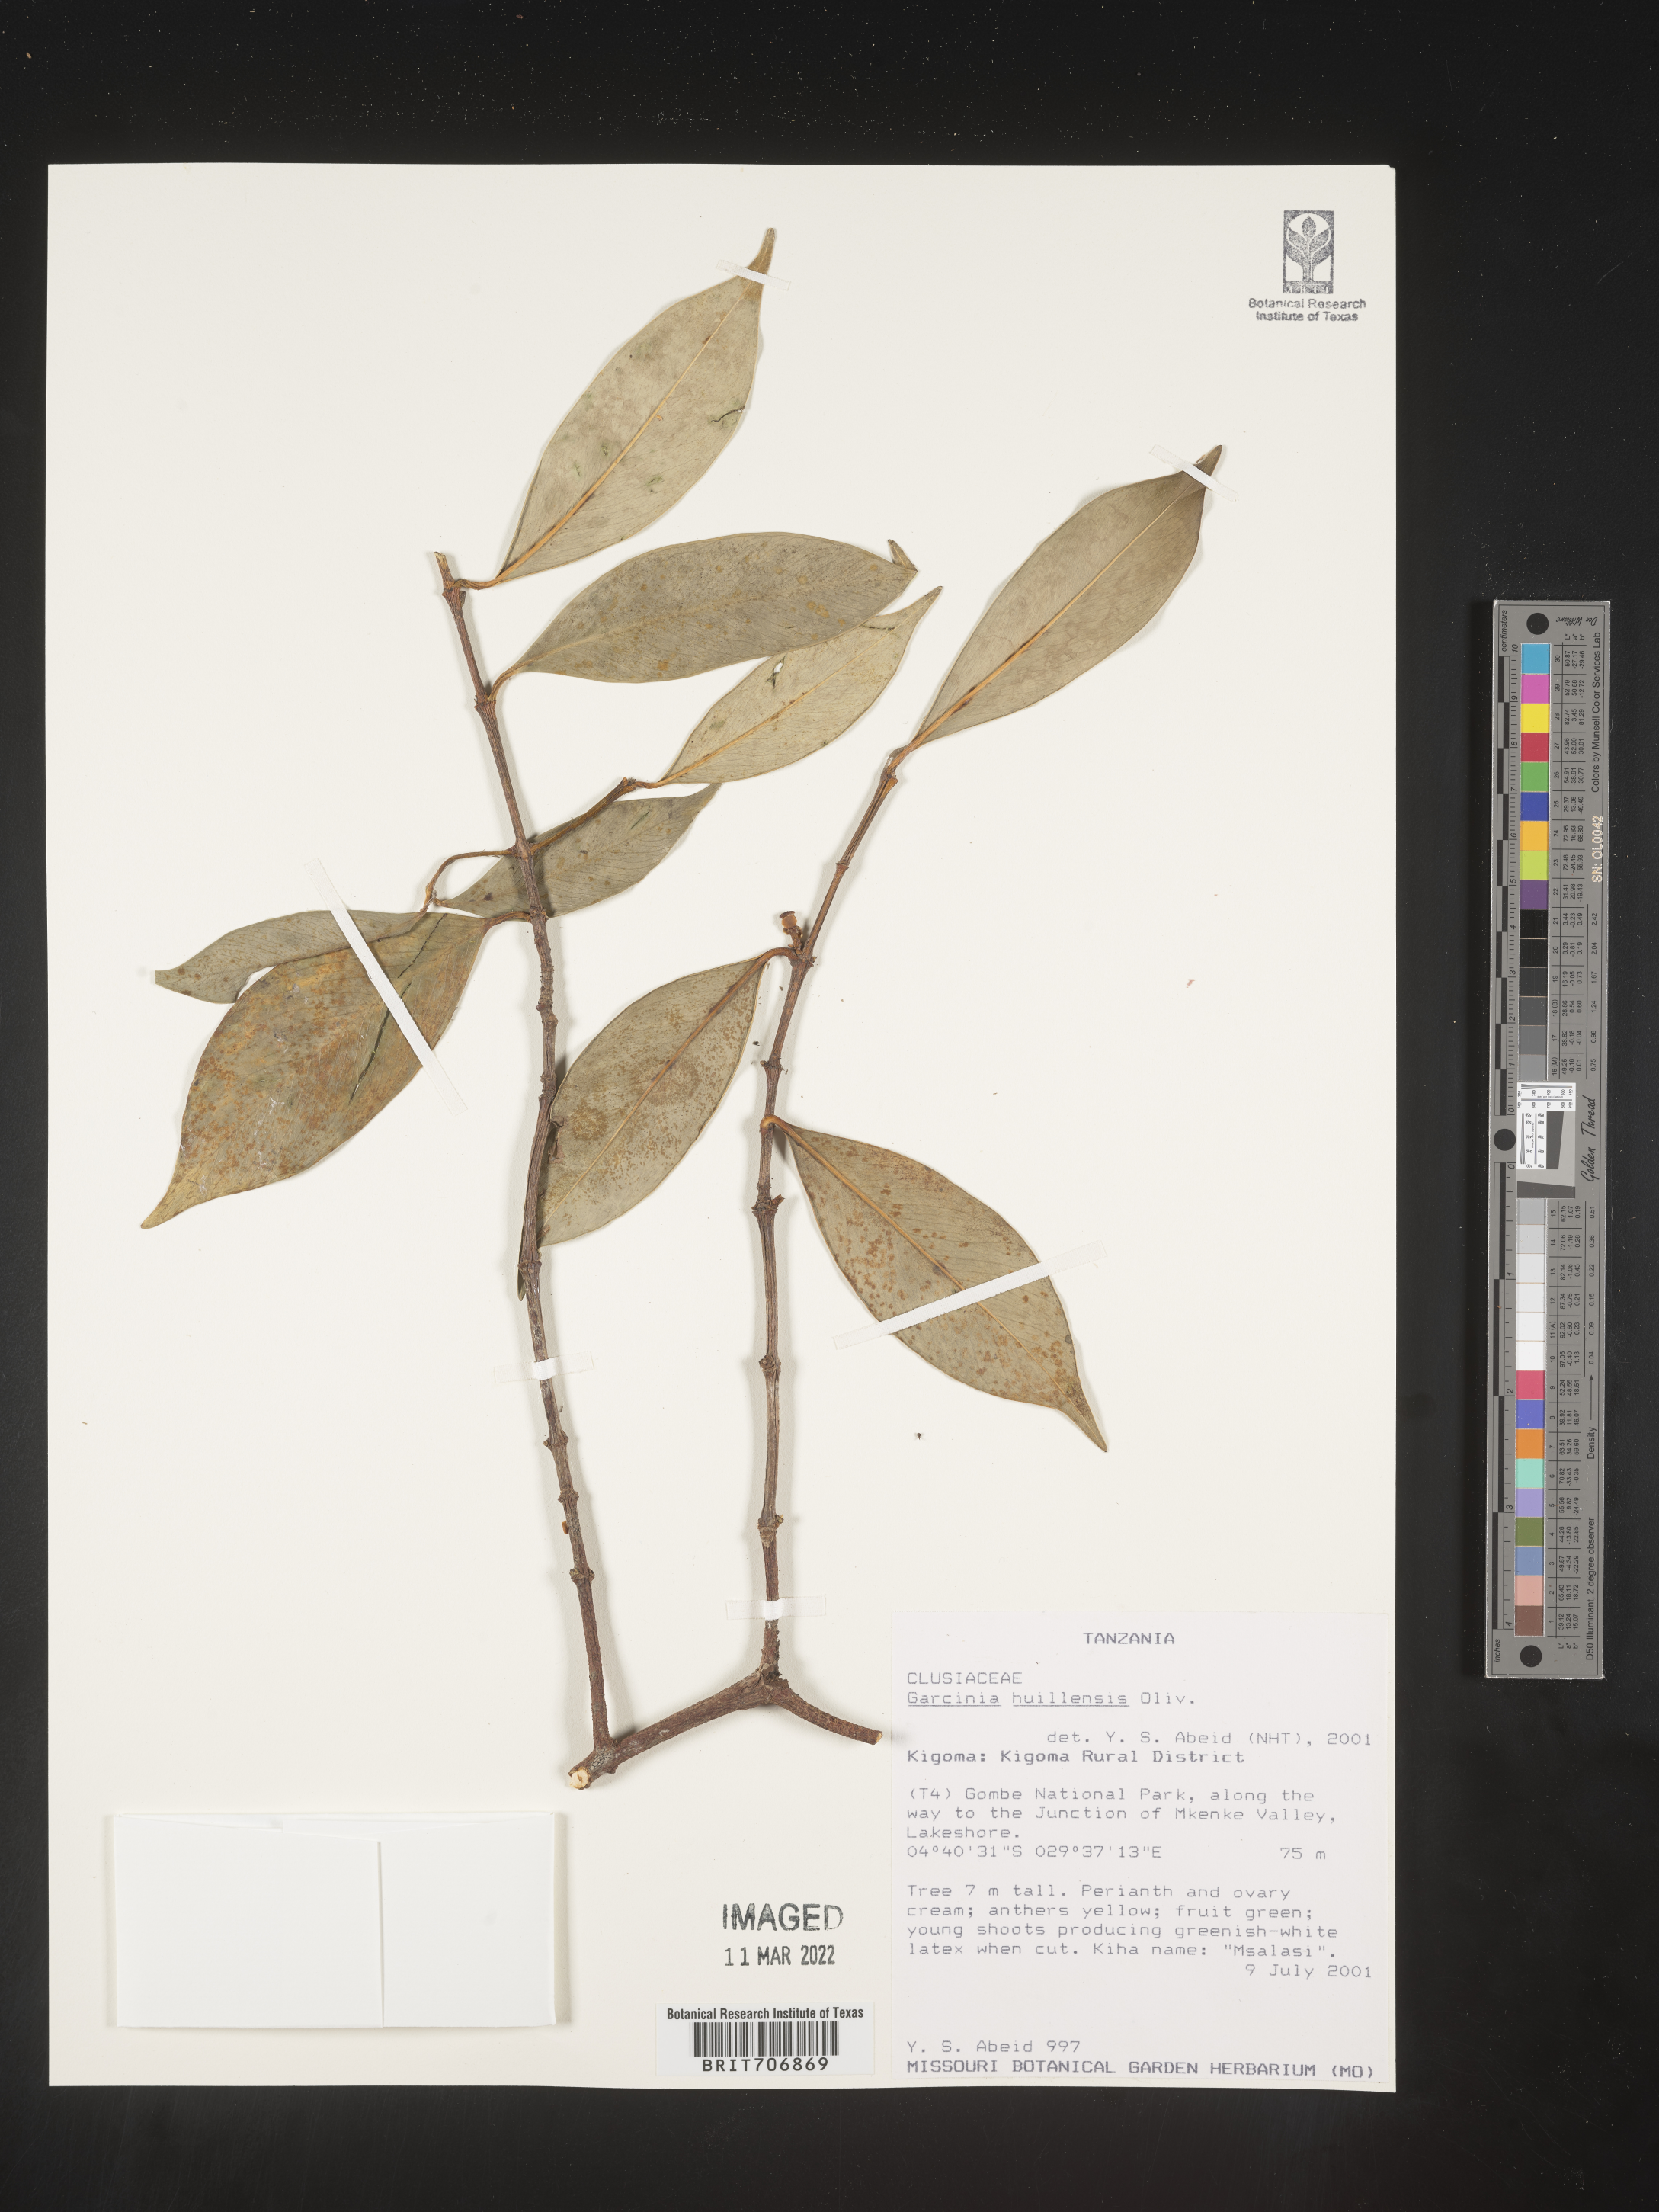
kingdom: Plantae
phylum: Tracheophyta
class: Magnoliopsida
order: Malpighiales
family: Clusiaceae
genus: Garcinia
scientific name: Garcinia
